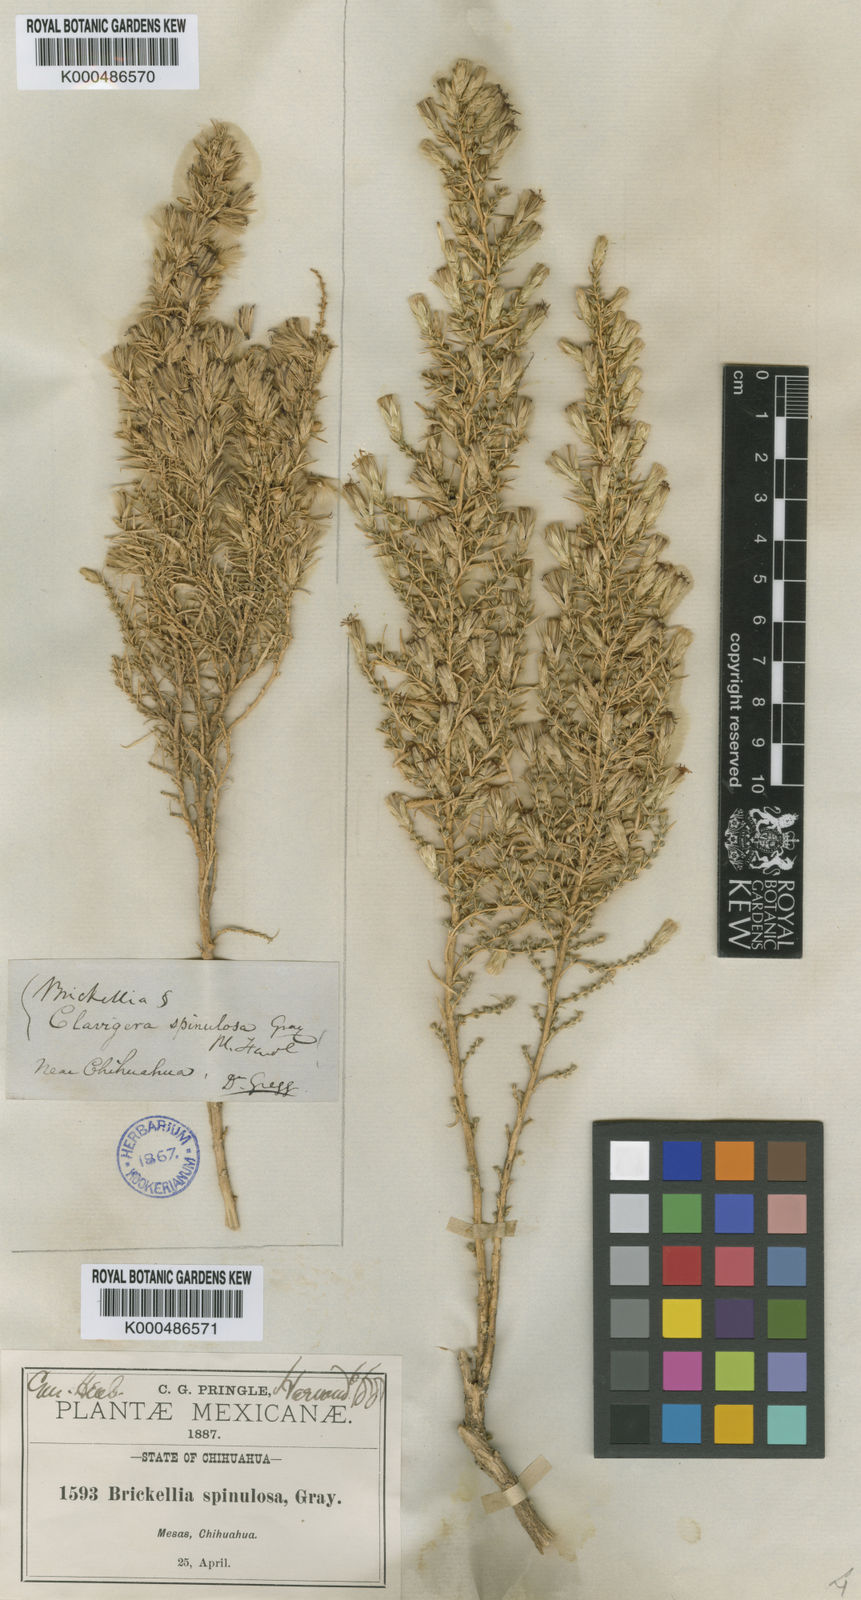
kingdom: Plantae
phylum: Tracheophyta
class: Magnoliopsida
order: Asterales
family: Asteraceae
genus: Brickellia
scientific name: Brickellia spinulosa
